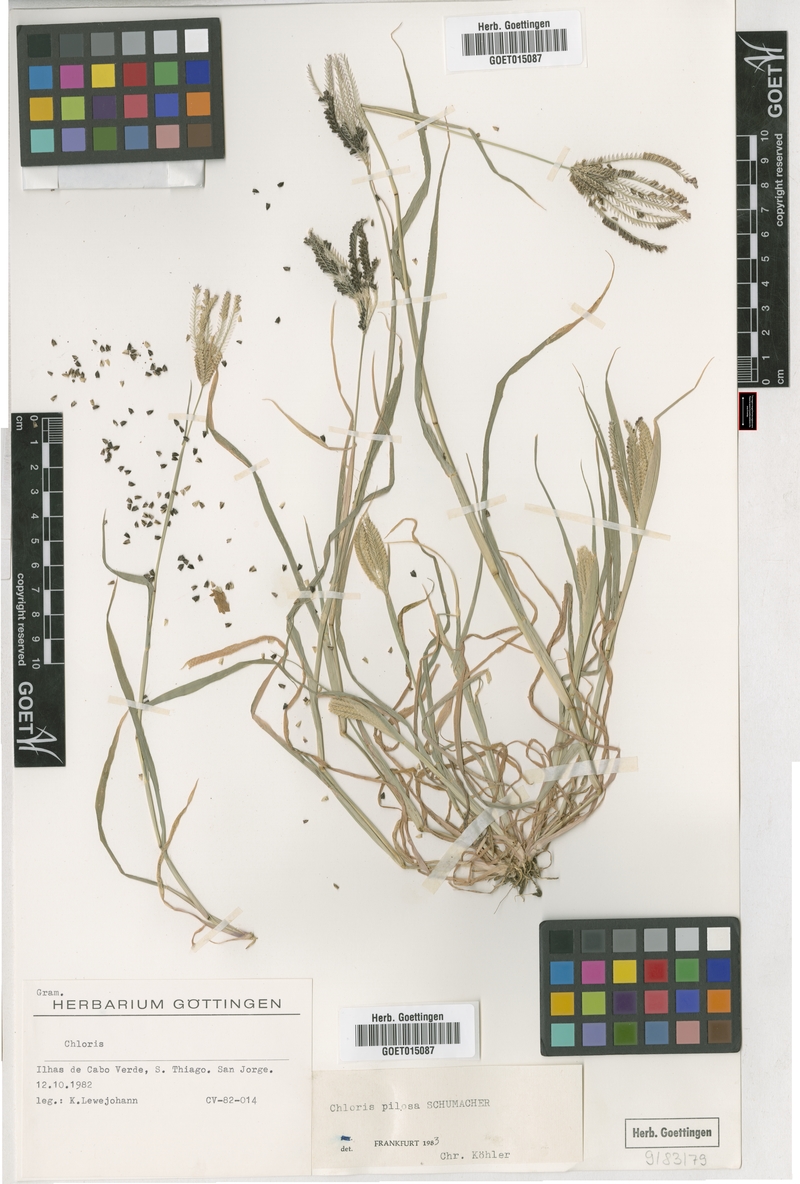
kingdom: Plantae
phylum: Tracheophyta
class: Liliopsida
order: Poales
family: Poaceae
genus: Chloris
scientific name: Chloris pilosa
